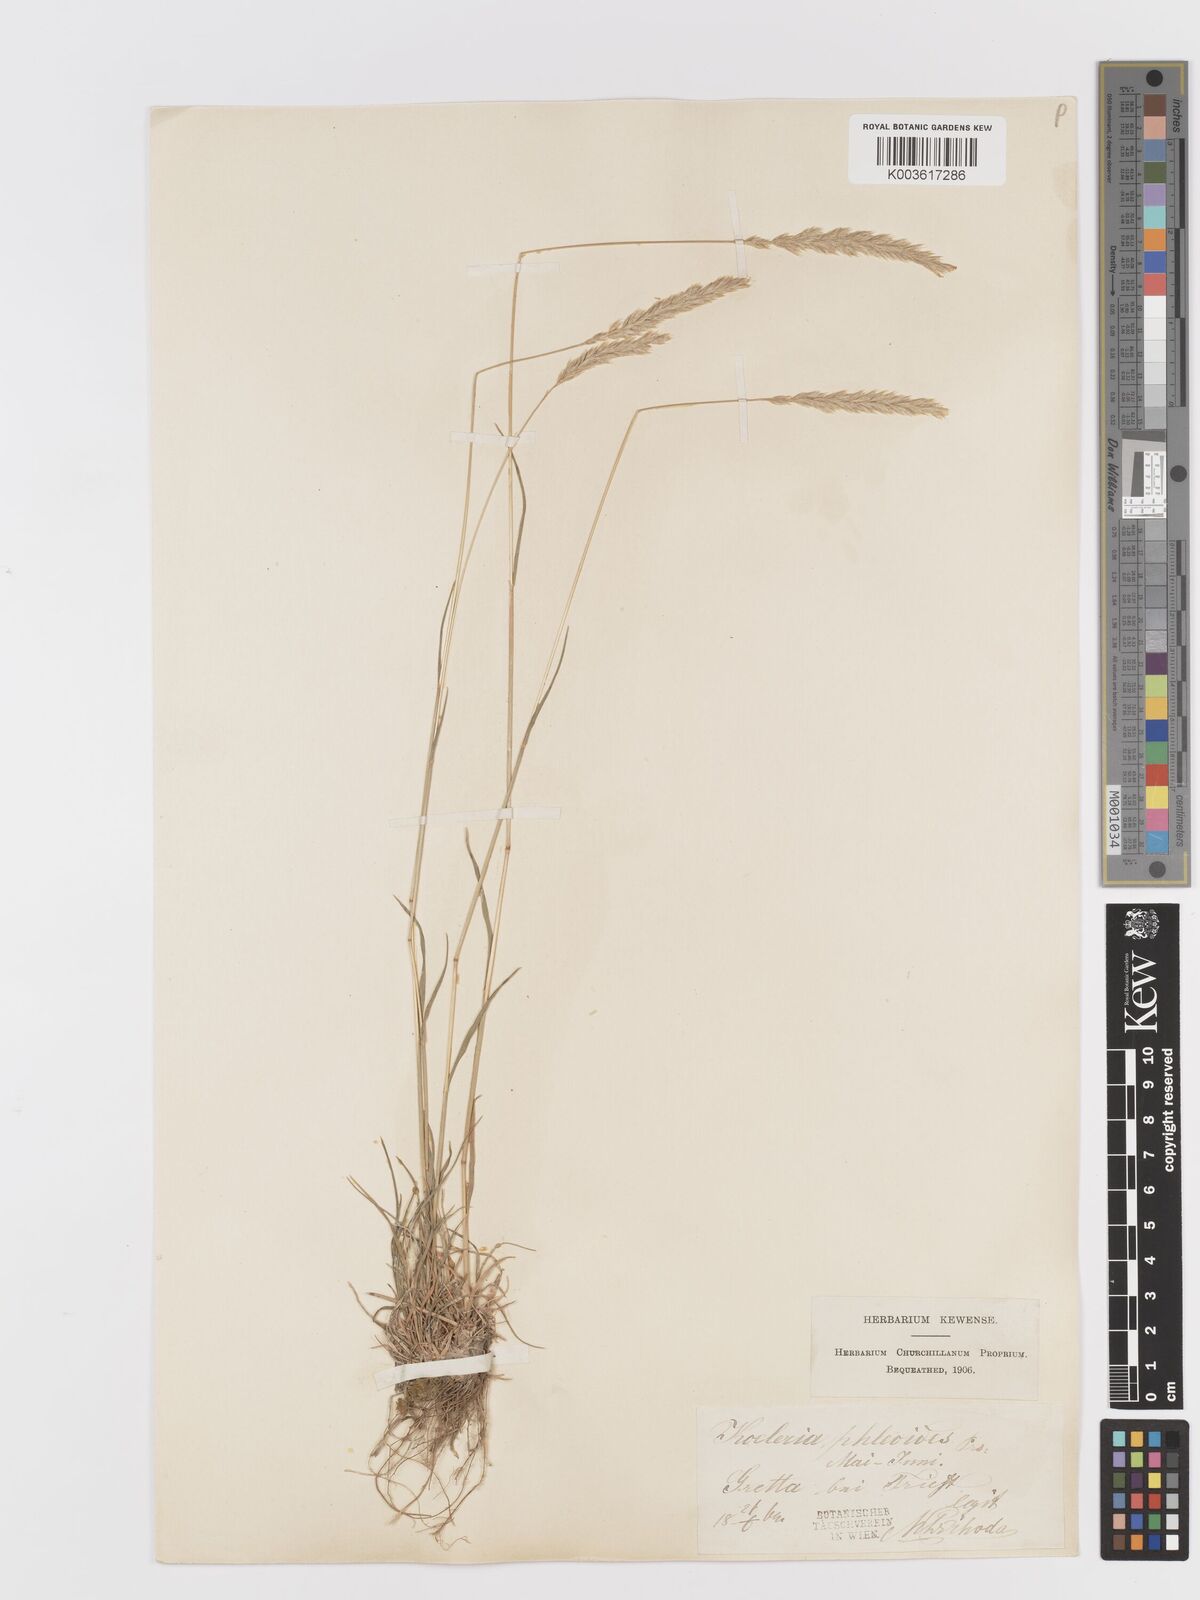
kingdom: Plantae
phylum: Tracheophyta
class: Liliopsida
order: Poales
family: Poaceae
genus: Koeleria
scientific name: Koeleria macrantha
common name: Crested hair-grass
